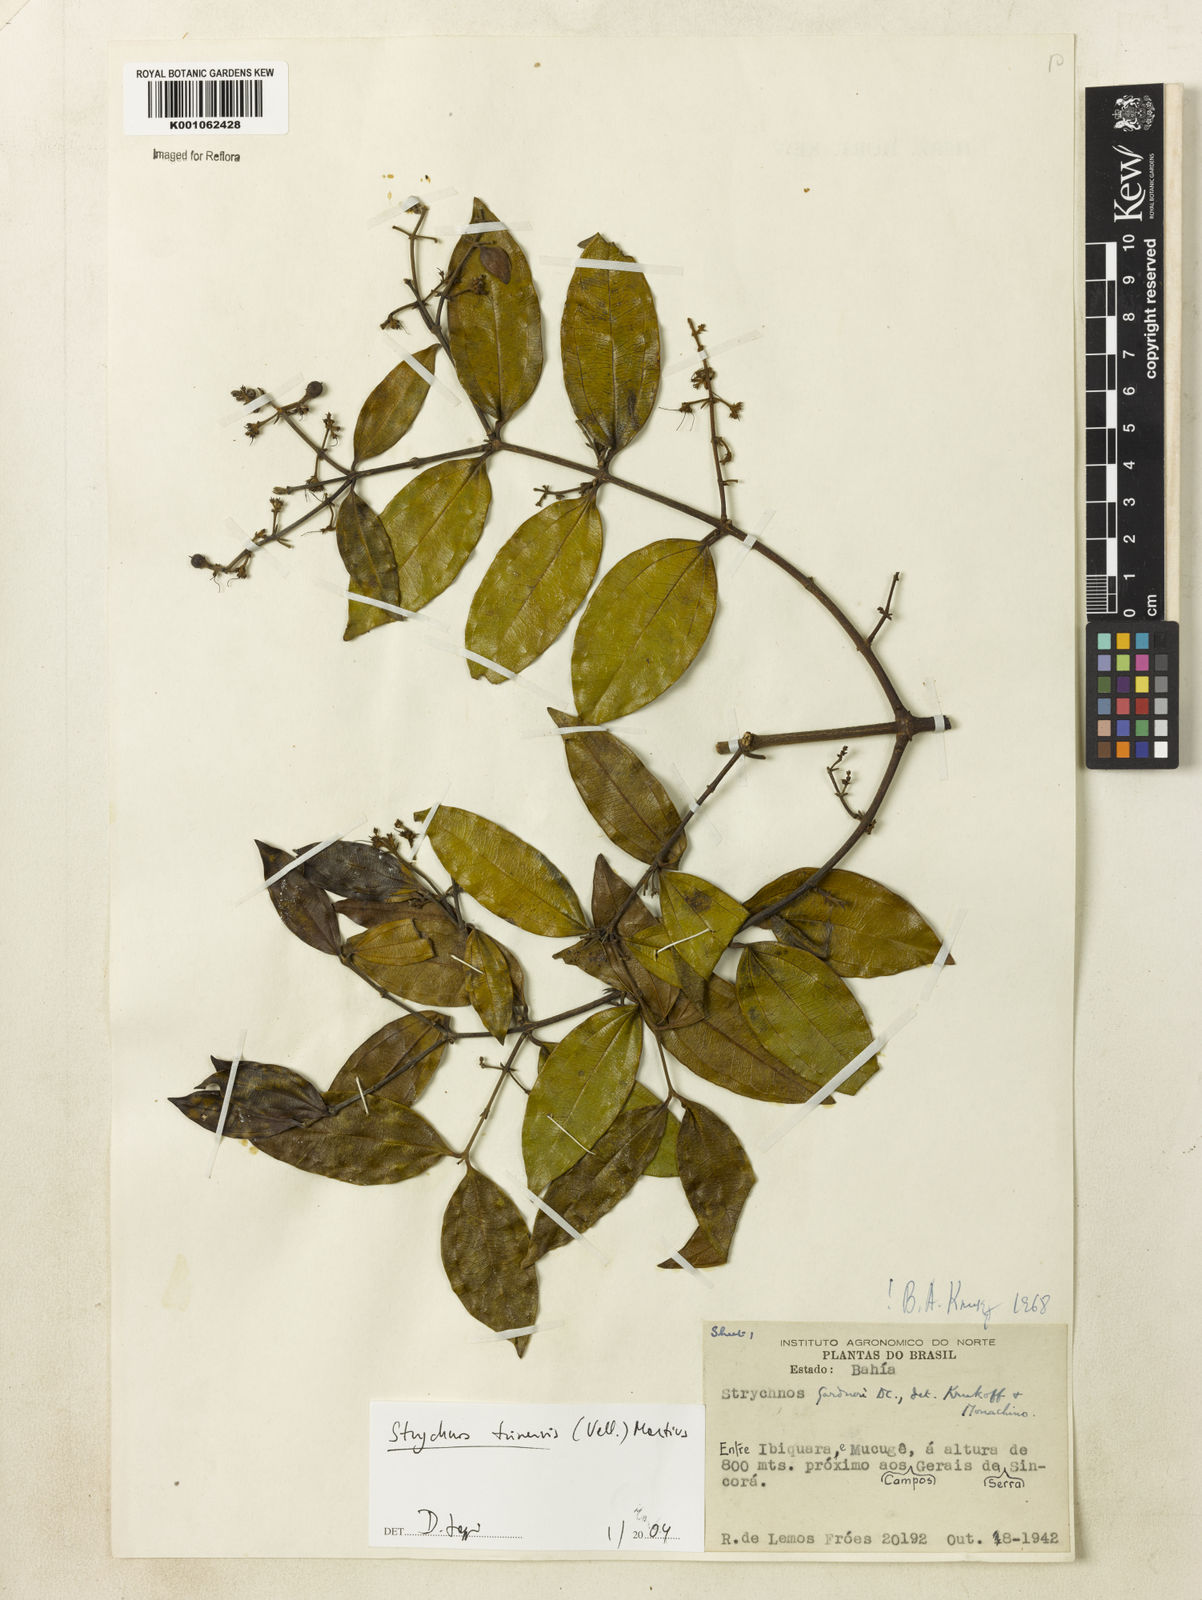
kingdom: Plantae
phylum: Tracheophyta
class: Magnoliopsida
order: Gentianales
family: Loganiaceae
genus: Strychnos
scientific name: Strychnos
